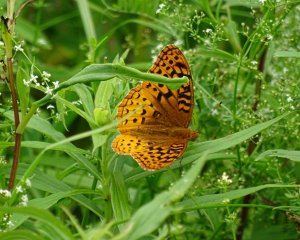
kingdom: Animalia
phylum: Arthropoda
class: Insecta
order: Lepidoptera
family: Nymphalidae
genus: Speyeria
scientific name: Speyeria cybele
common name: Great Spangled Fritillary
